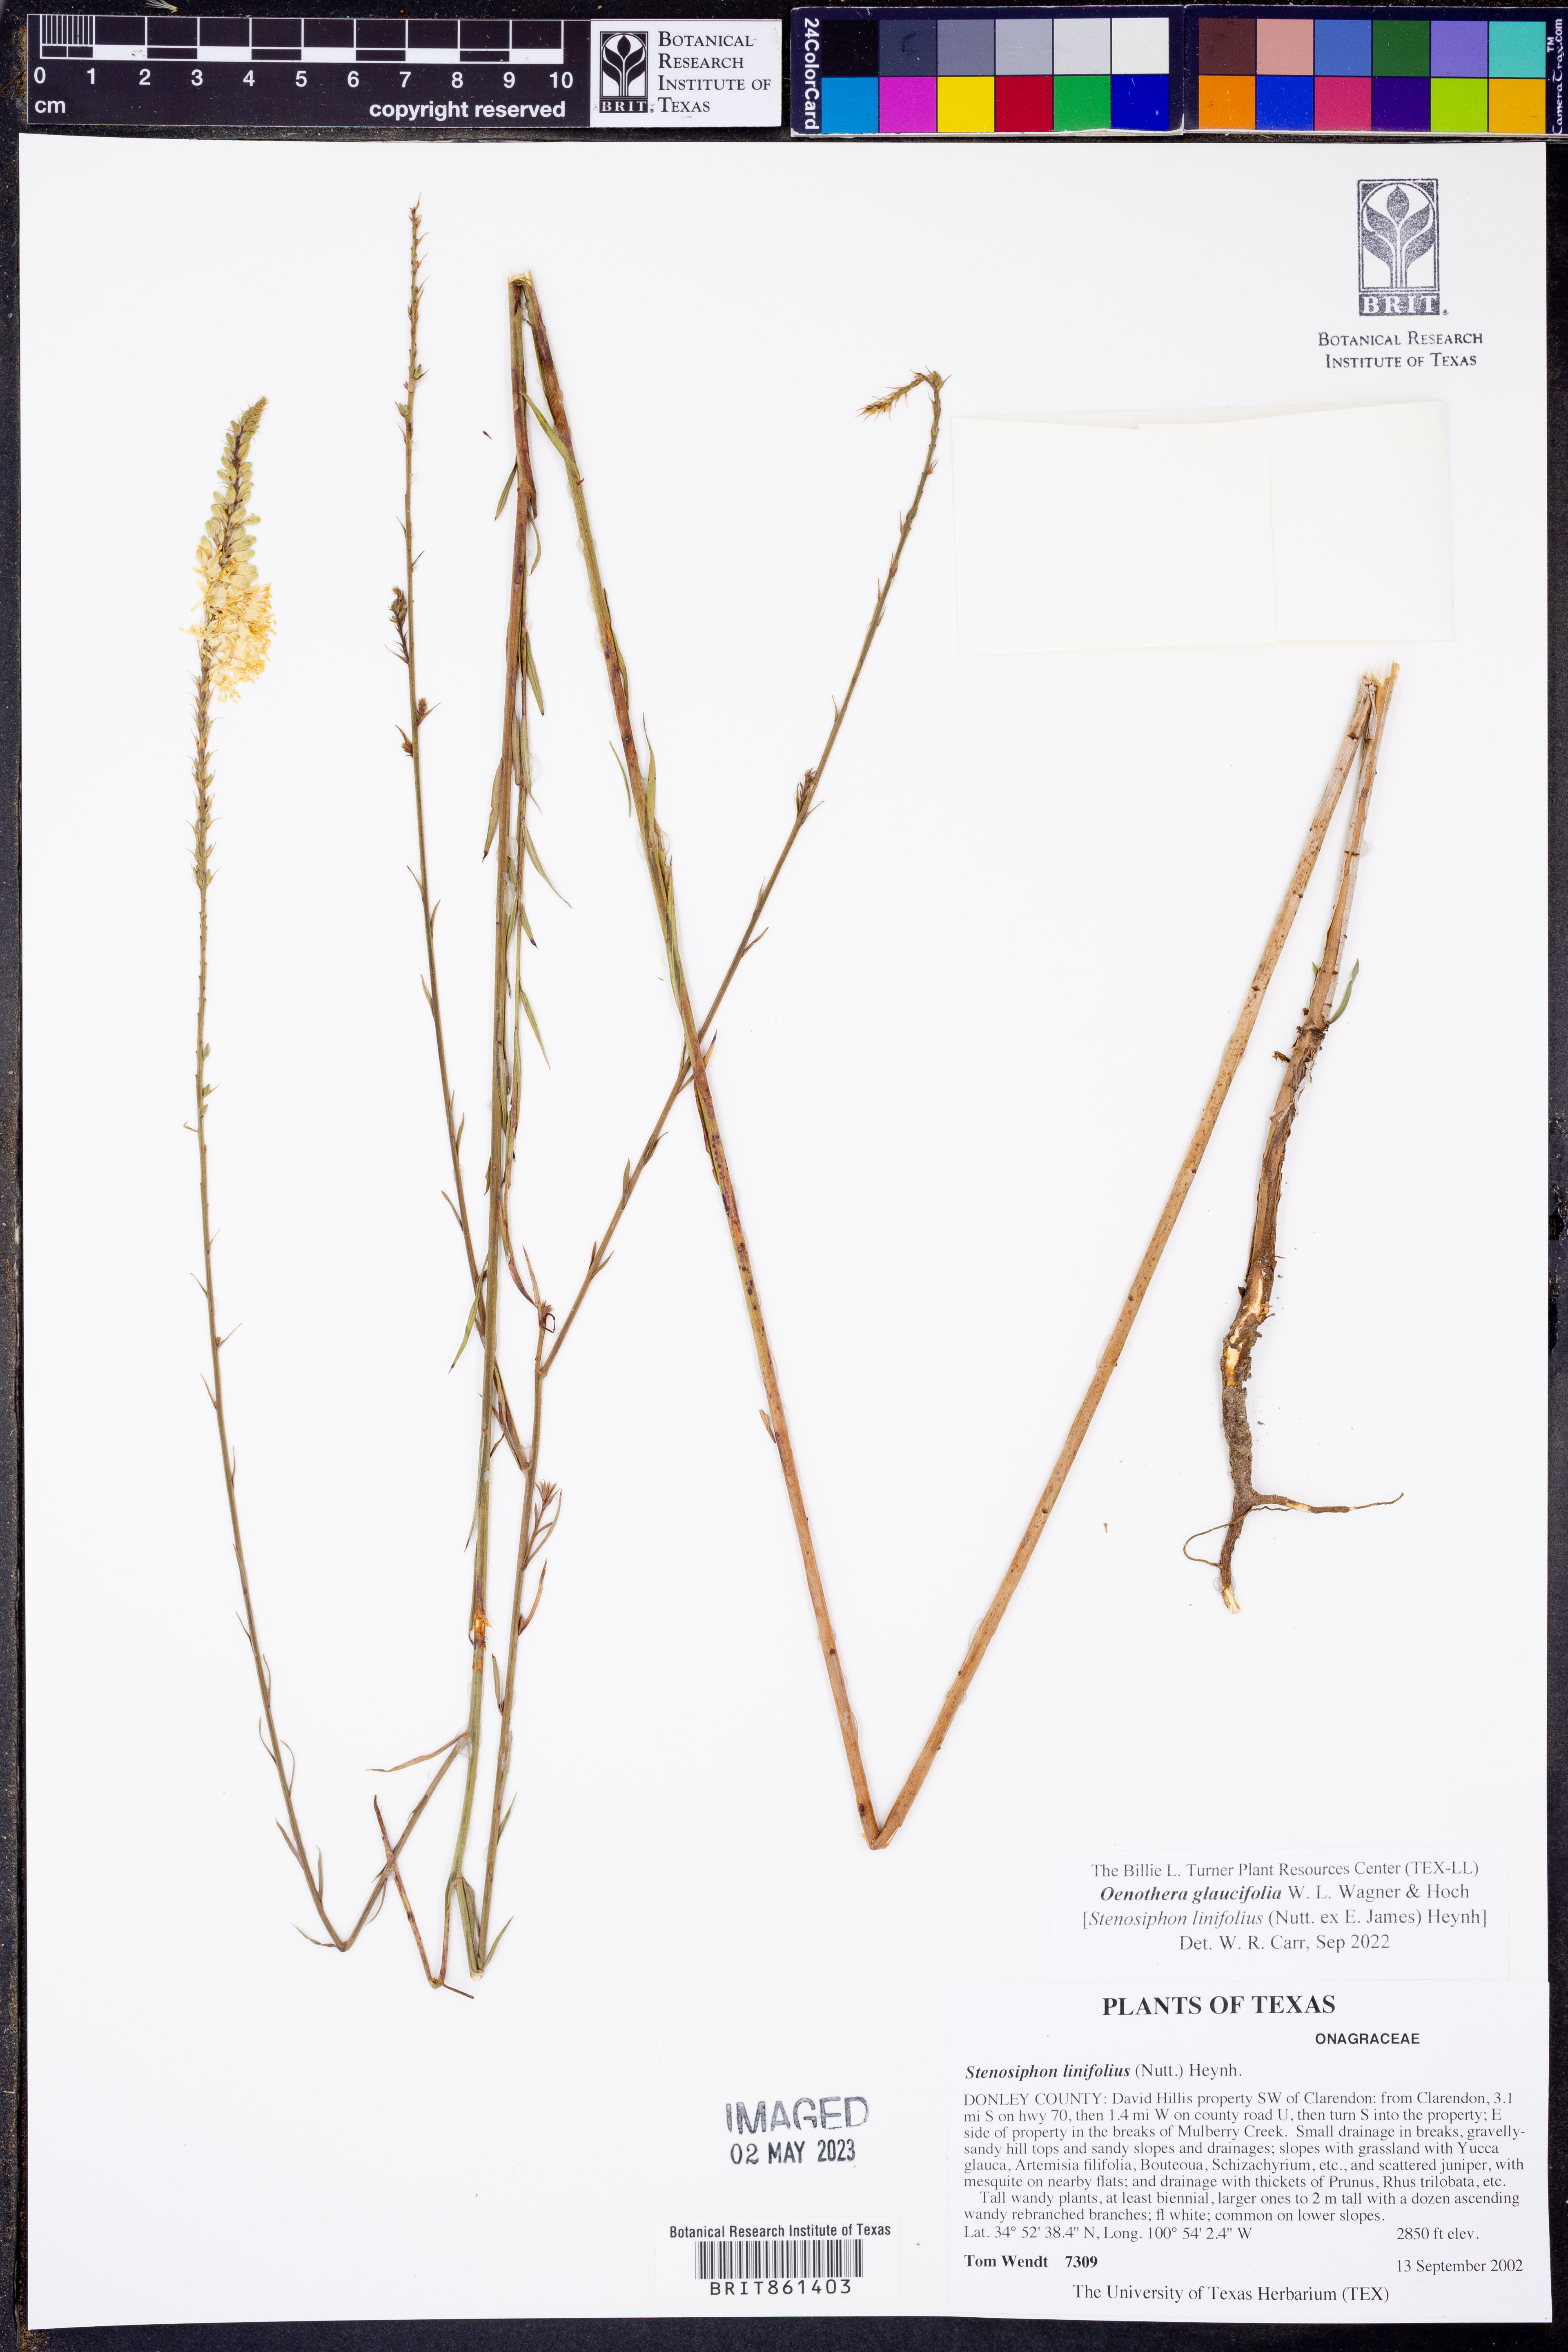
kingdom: Plantae
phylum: Tracheophyta
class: Magnoliopsida
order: Myrtales
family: Onagraceae
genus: Oenothera
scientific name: Oenothera glaucifolia
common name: False gaura
